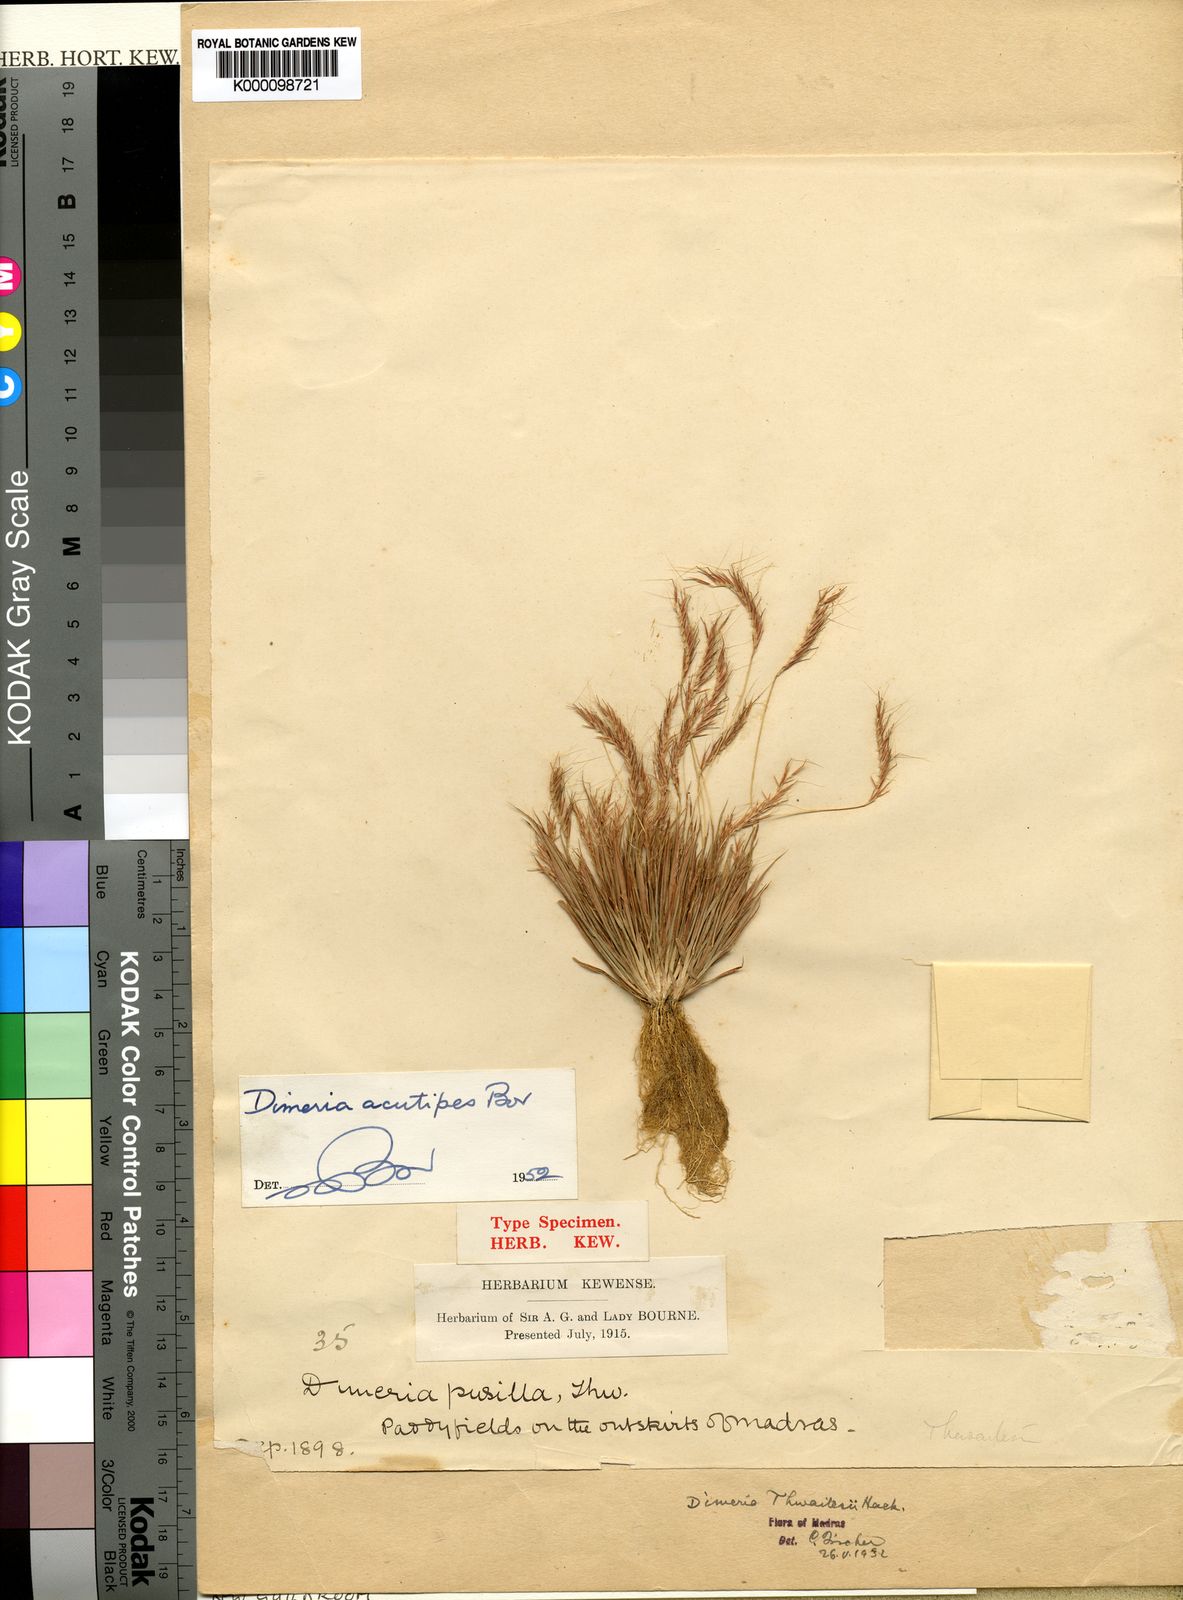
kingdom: Plantae
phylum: Tracheophyta
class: Liliopsida
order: Poales
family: Poaceae
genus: Dimeria
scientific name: Dimeria
